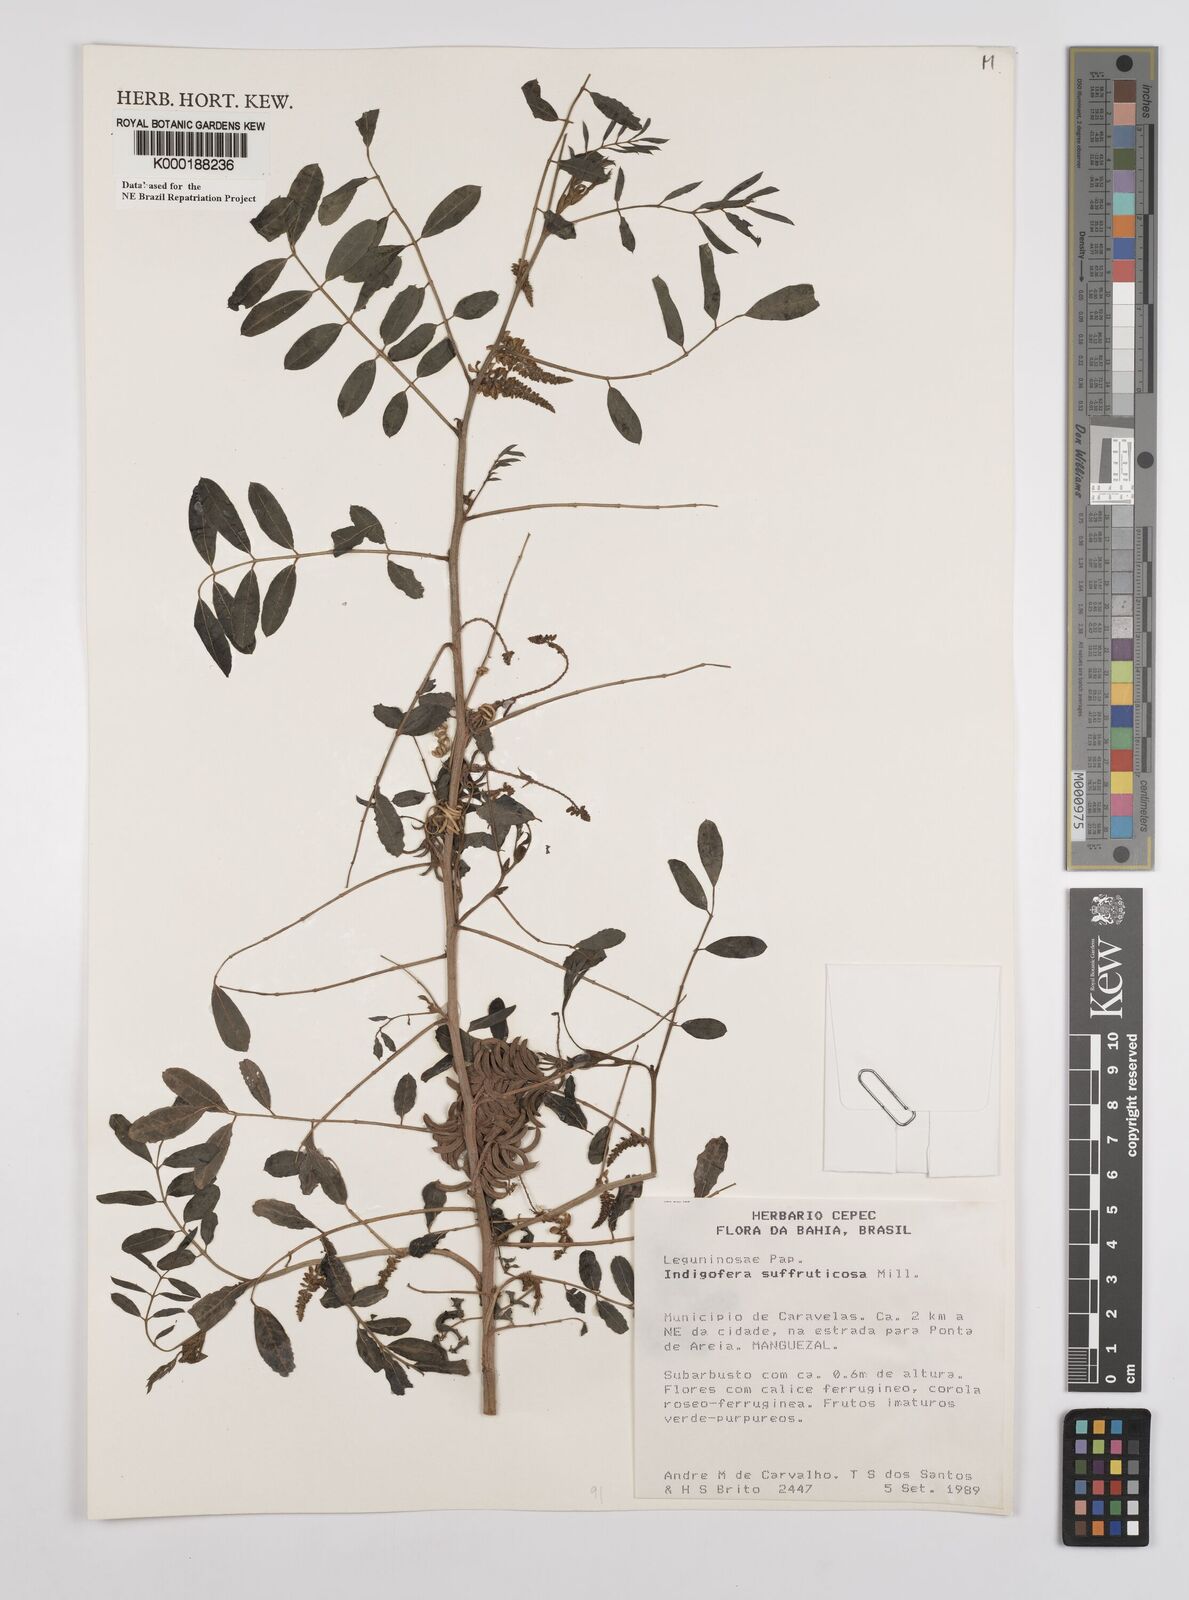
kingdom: Plantae
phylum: Tracheophyta
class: Magnoliopsida
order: Fabales
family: Fabaceae
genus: Indigofera
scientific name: Indigofera suffruticosa
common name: Anil de pasto
